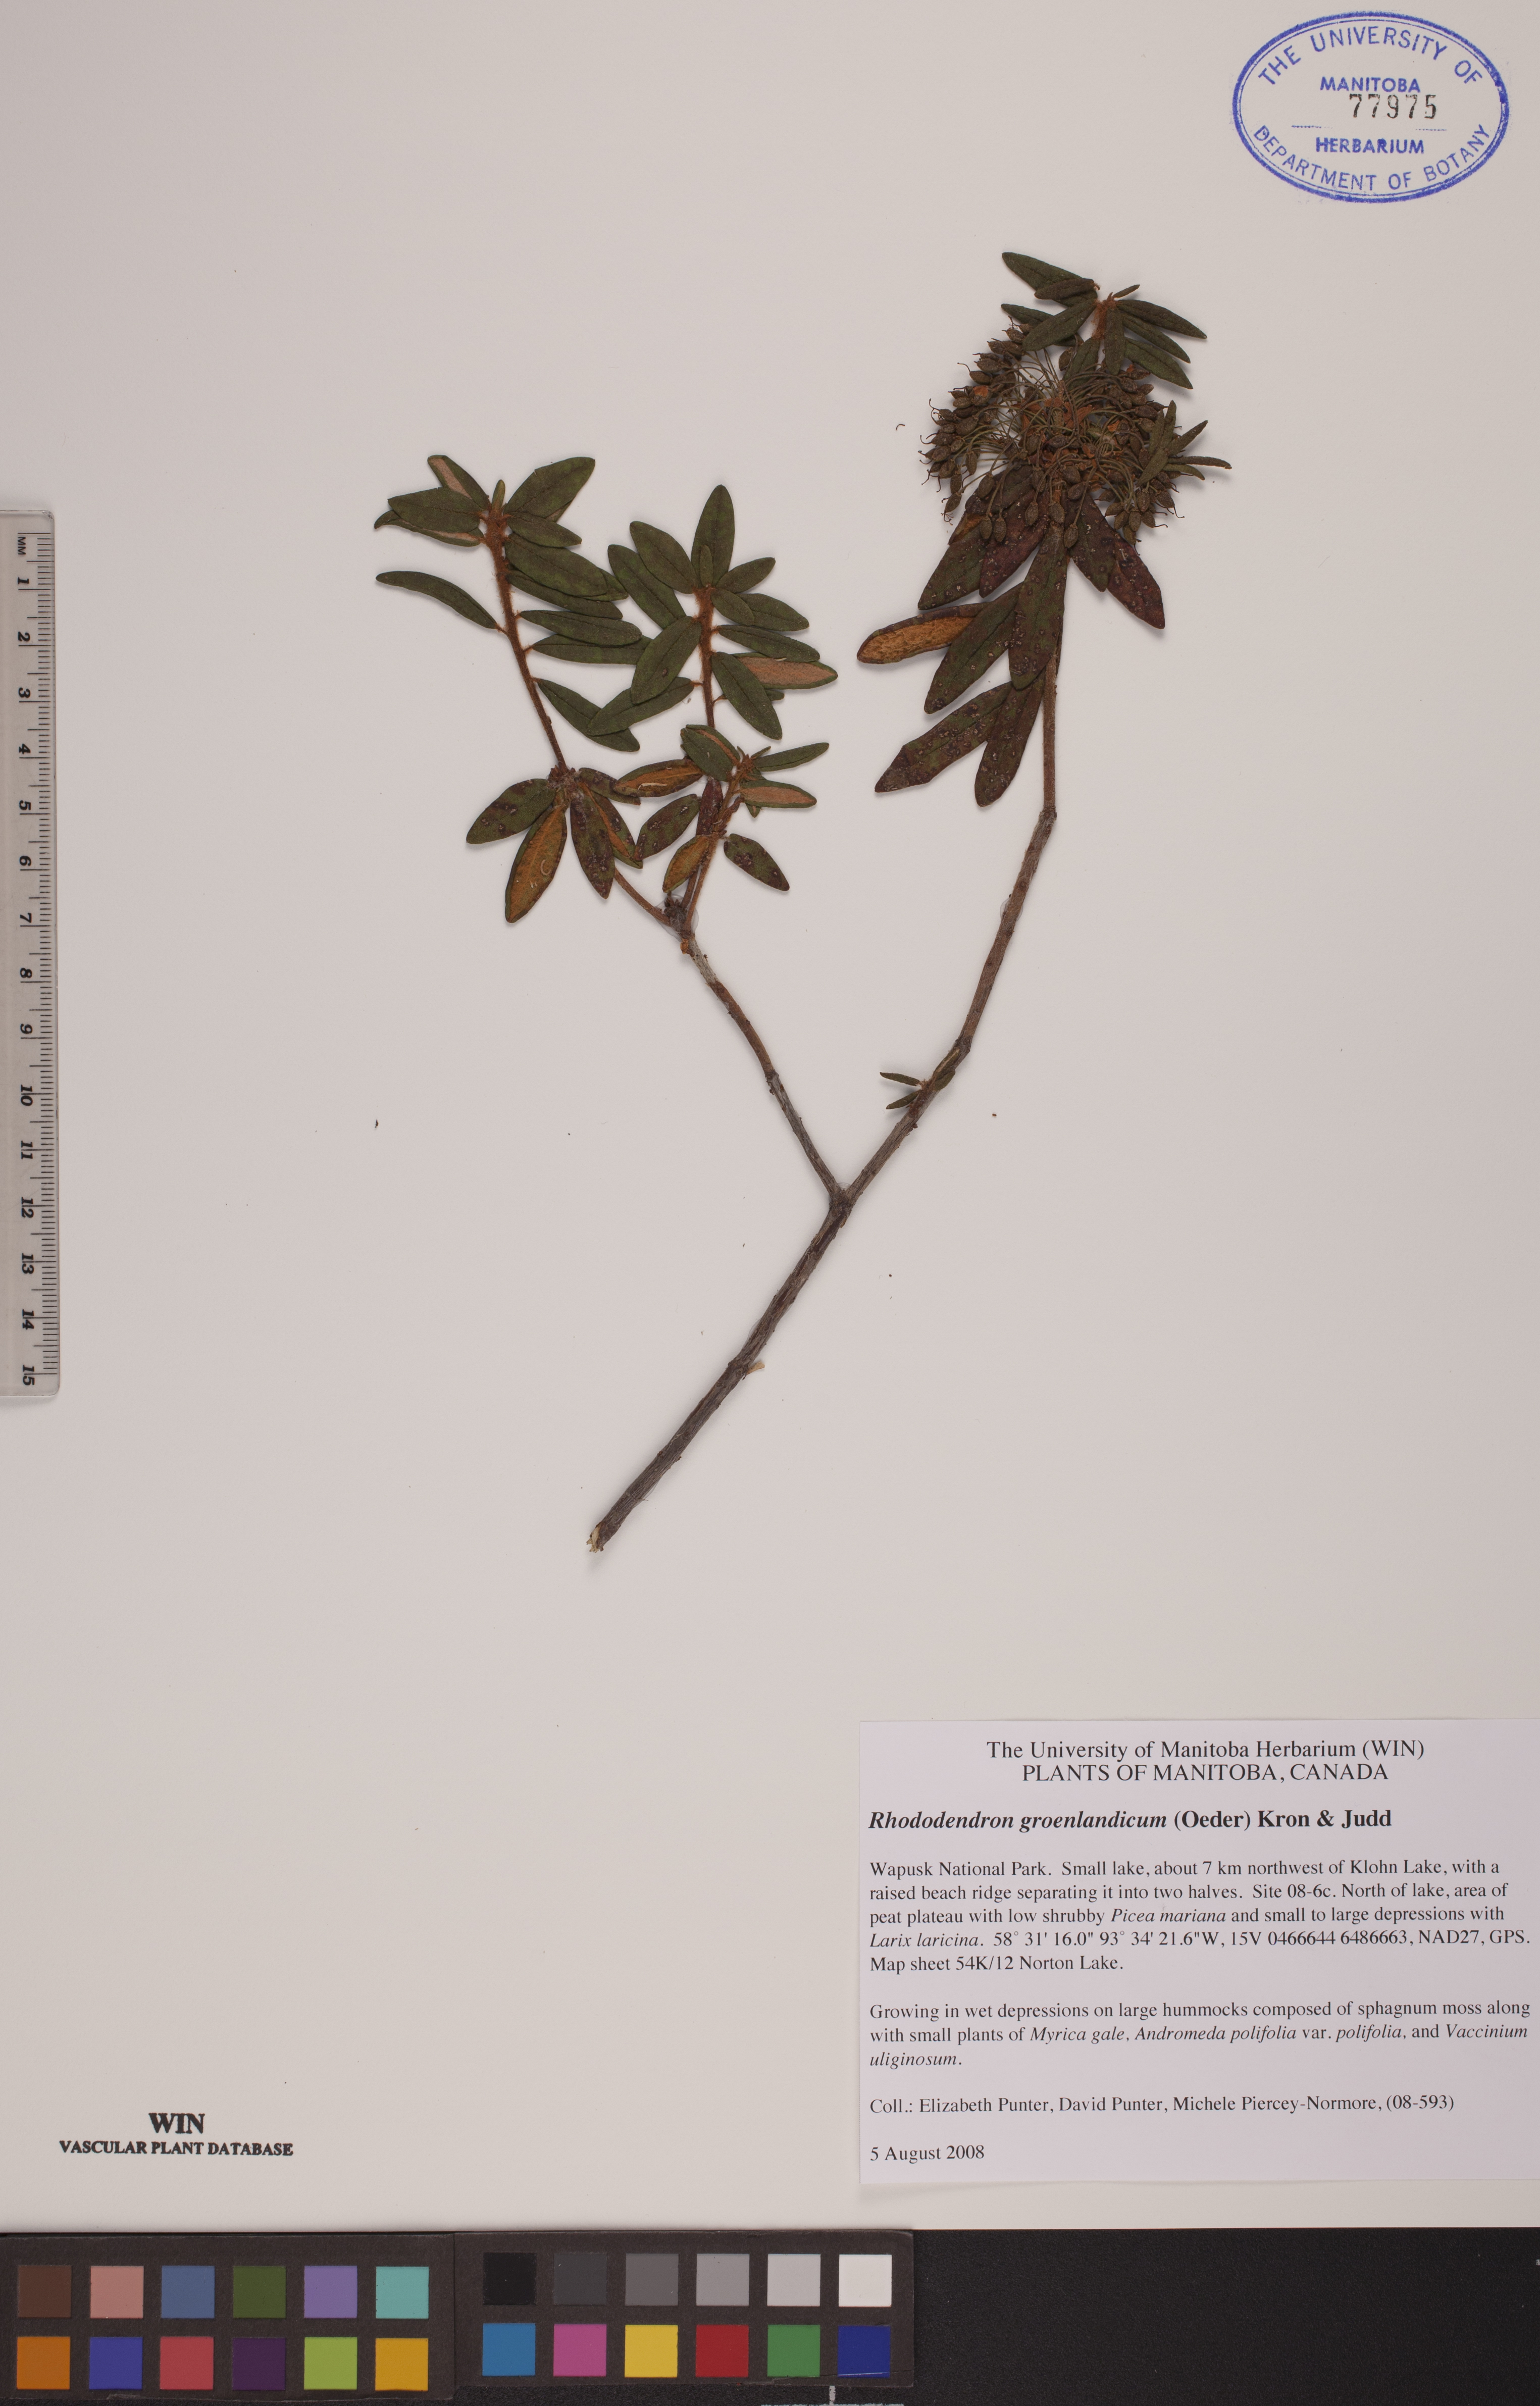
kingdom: Plantae
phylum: Tracheophyta
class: Magnoliopsida
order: Ericales
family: Ericaceae
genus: Rhododendron
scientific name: Rhododendron groenlandicum
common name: Bog labrador tea
